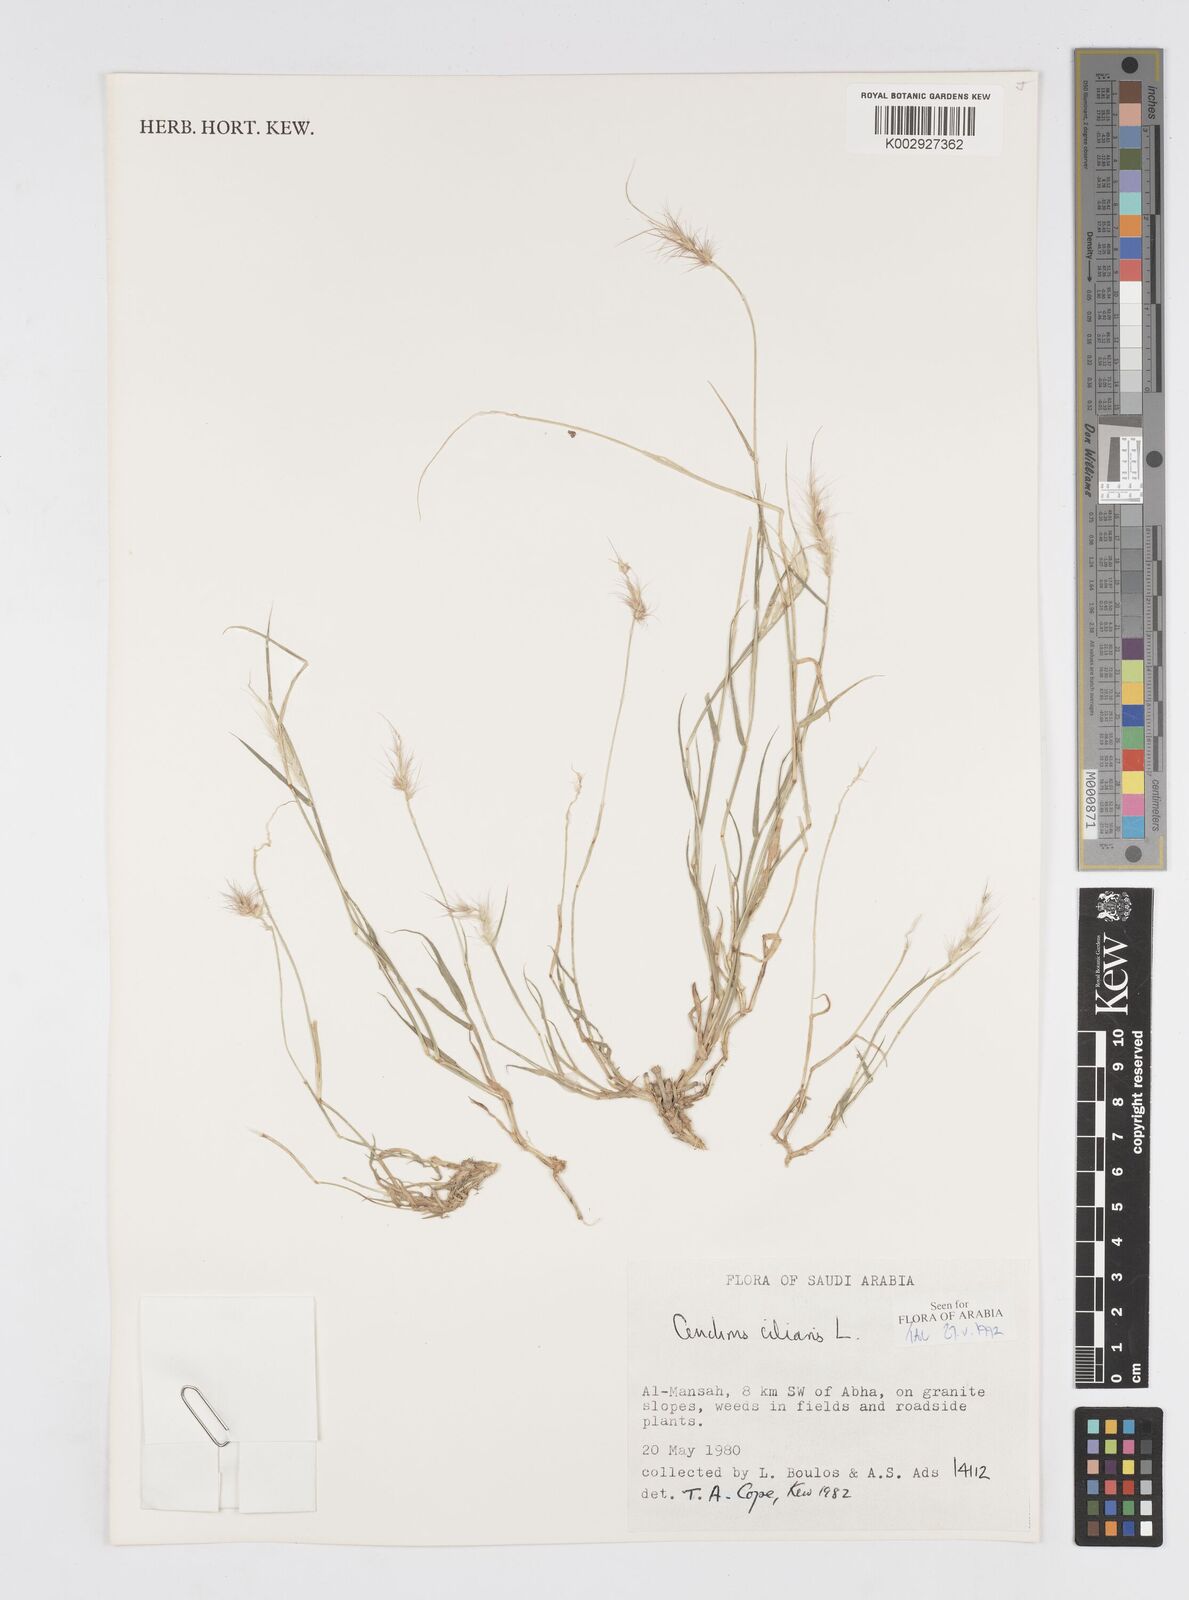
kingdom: Plantae
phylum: Tracheophyta
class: Liliopsida
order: Poales
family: Poaceae
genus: Cenchrus
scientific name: Cenchrus ciliaris
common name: Buffelgrass
